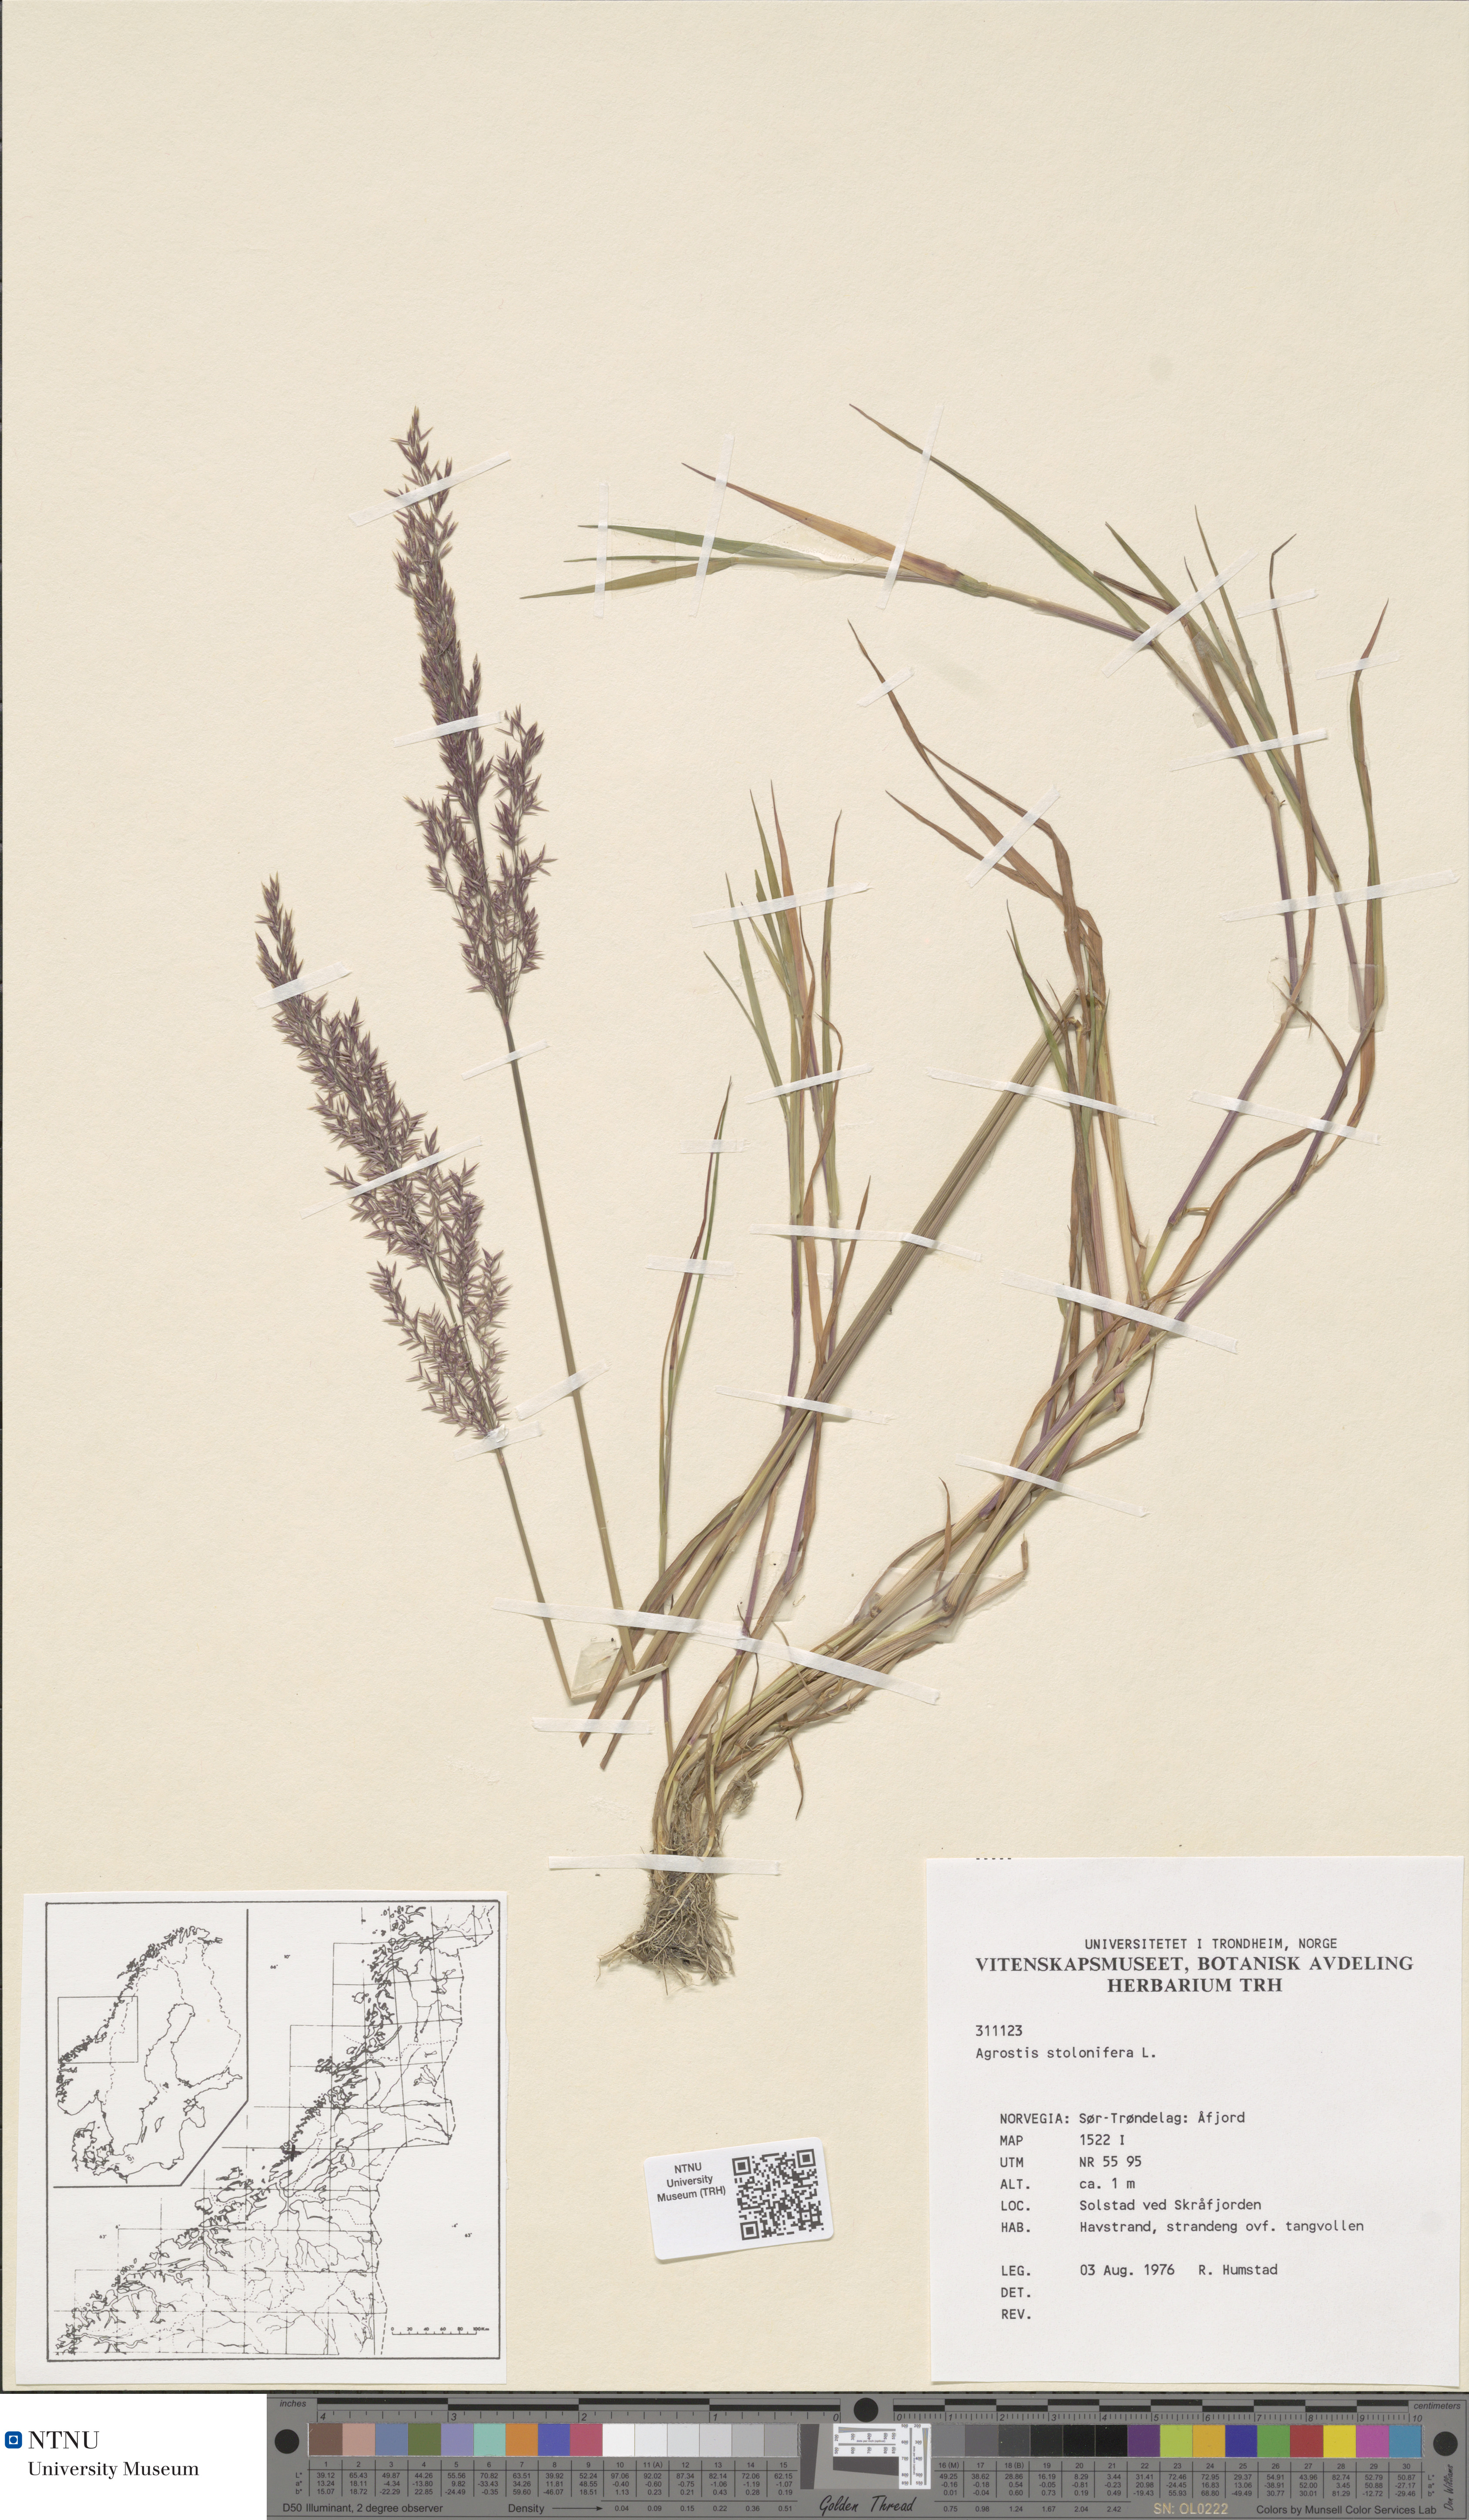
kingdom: Plantae
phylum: Tracheophyta
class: Liliopsida
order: Poales
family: Poaceae
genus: Agrostis
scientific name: Agrostis stolonifera
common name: Creeping bentgrass
